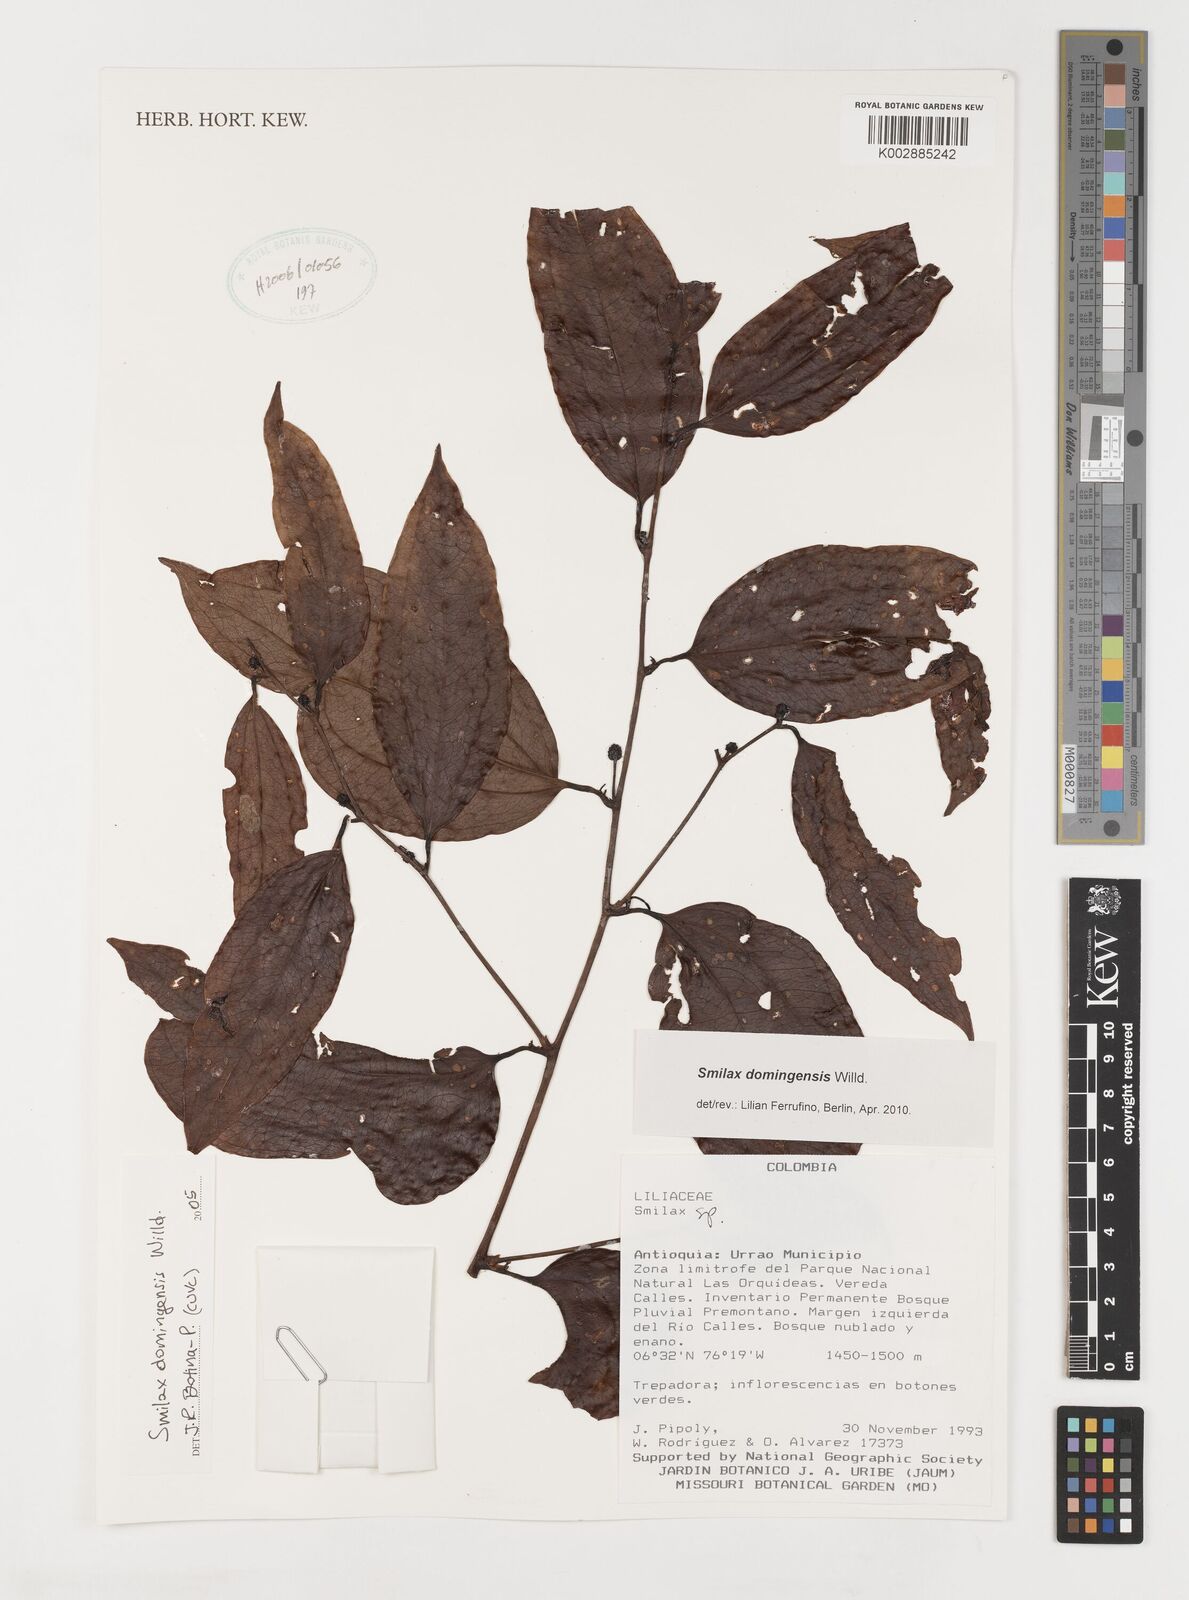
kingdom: Plantae
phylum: Tracheophyta
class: Liliopsida
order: Liliales
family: Smilacaceae
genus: Smilax
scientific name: Smilax domingensis
